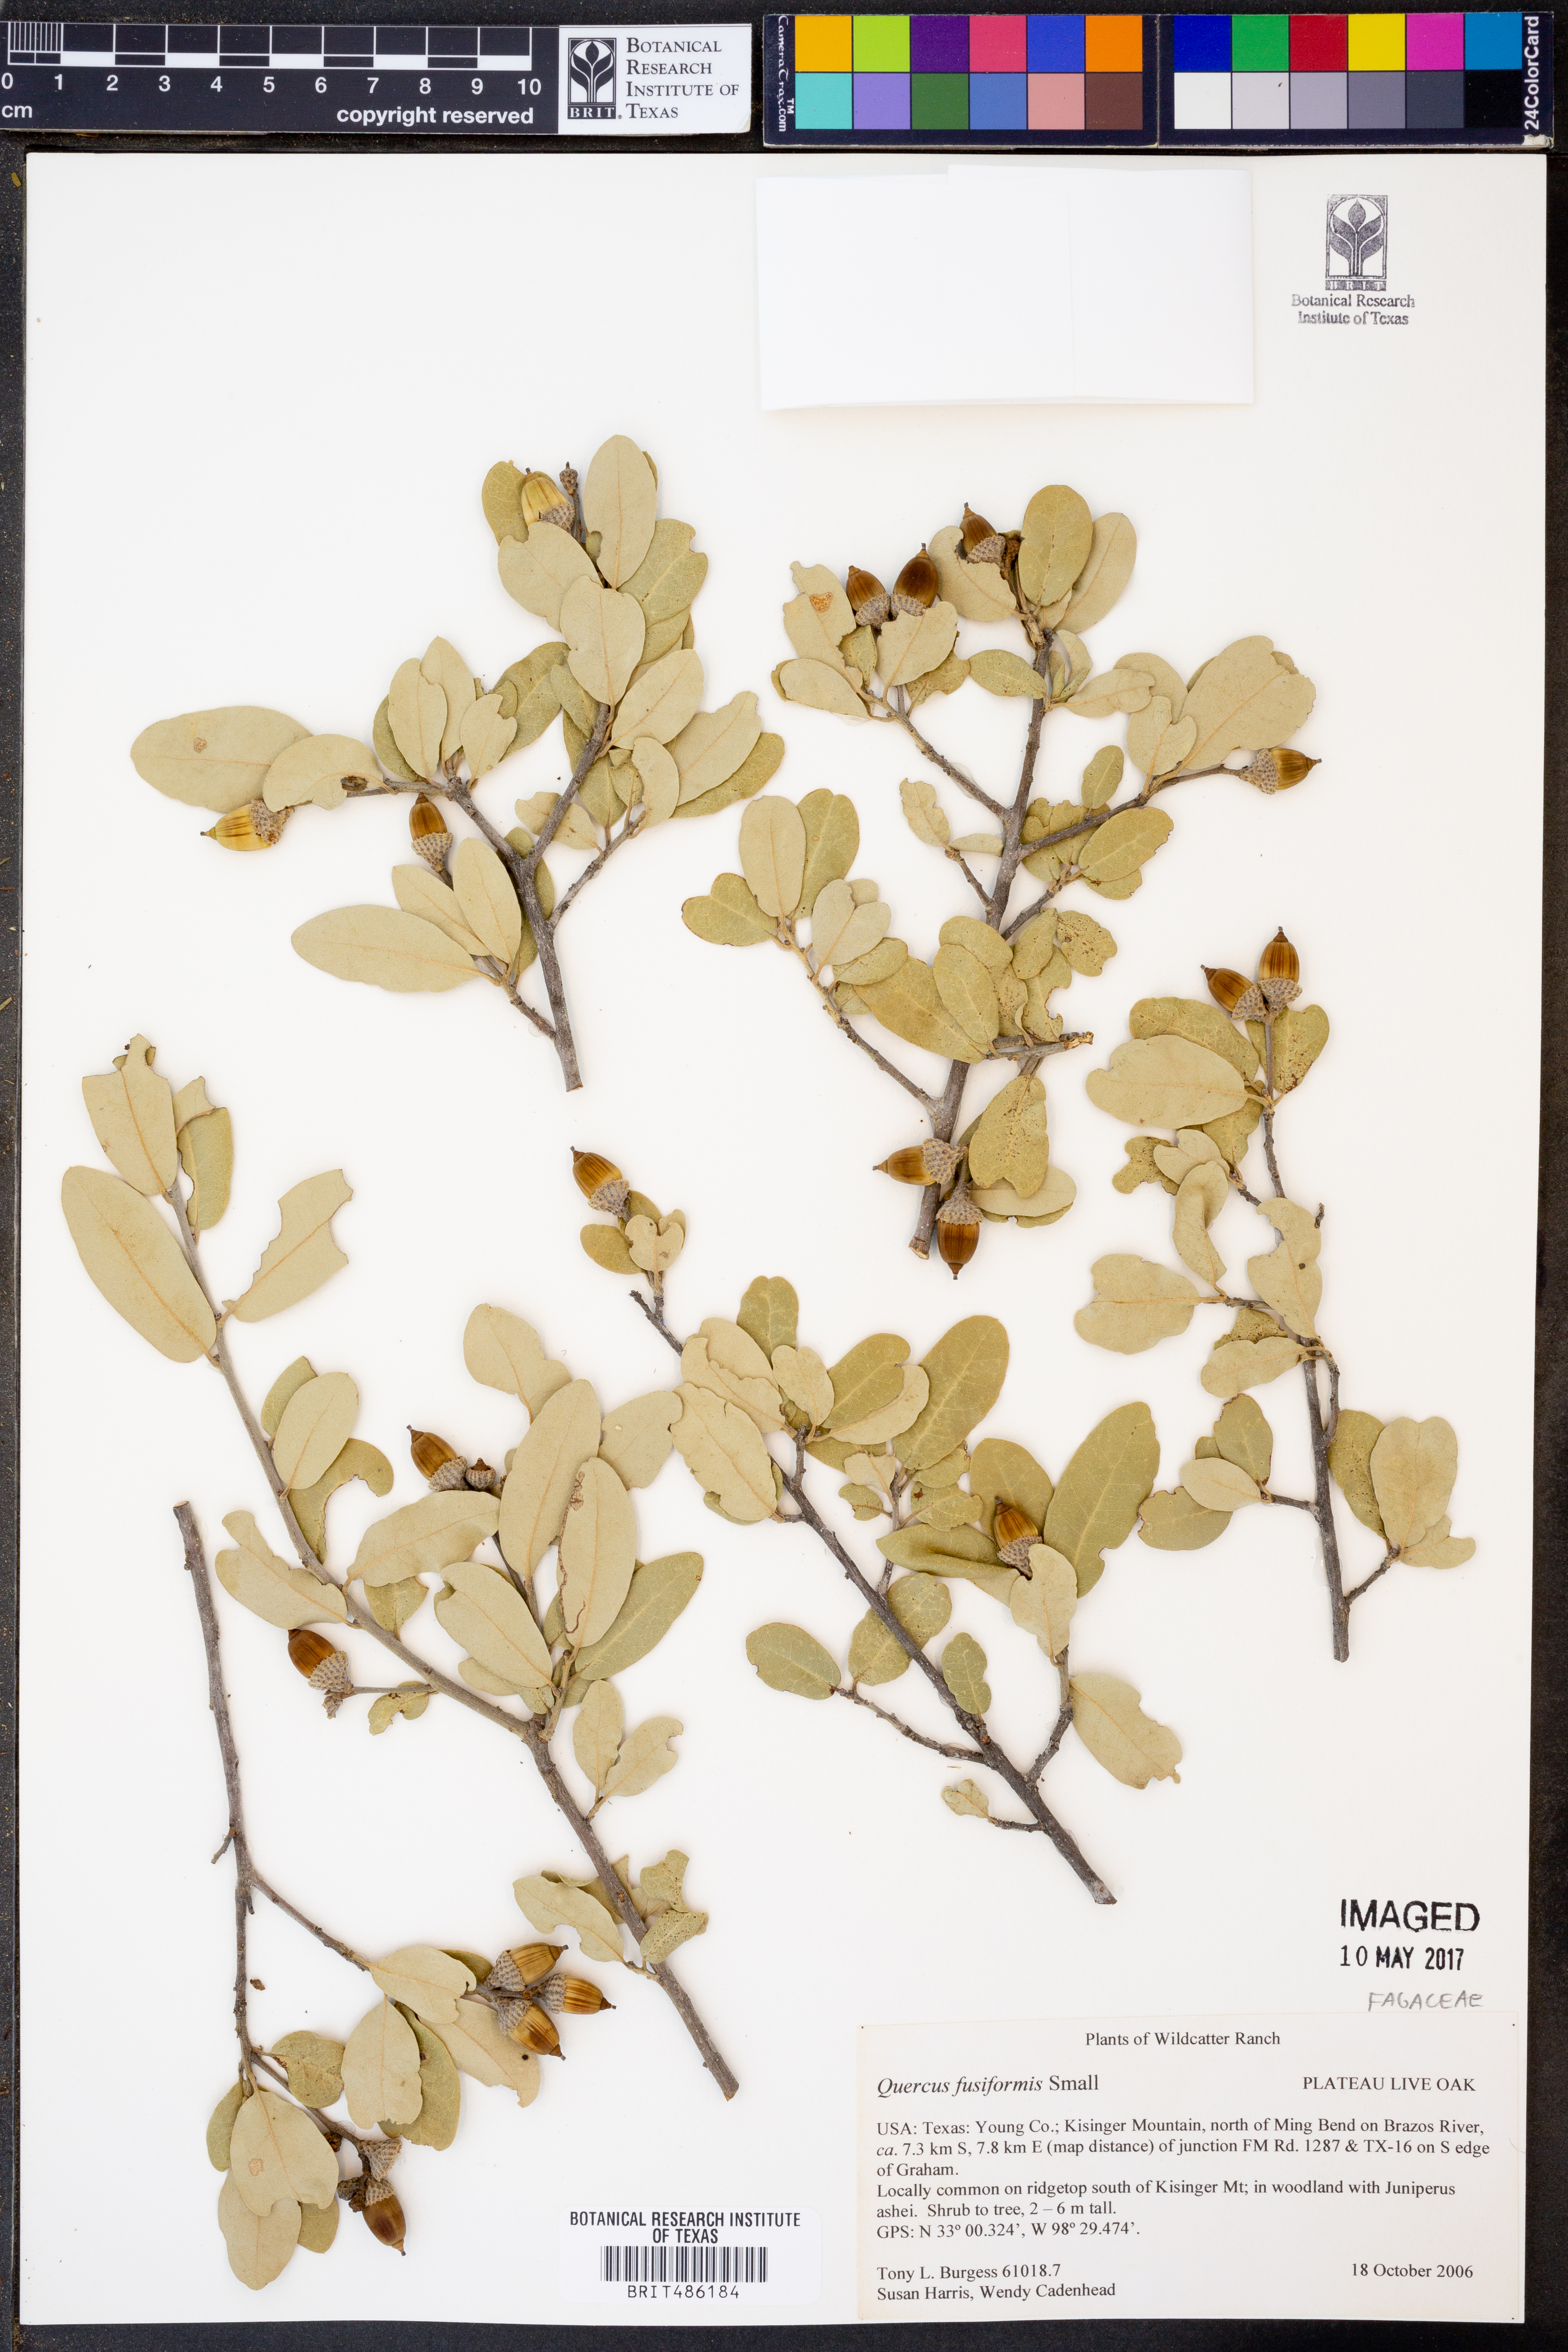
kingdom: Plantae
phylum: Tracheophyta
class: Magnoliopsida
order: Fagales
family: Fagaceae
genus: Quercus
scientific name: Quercus fusiformis
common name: Texas live oak
